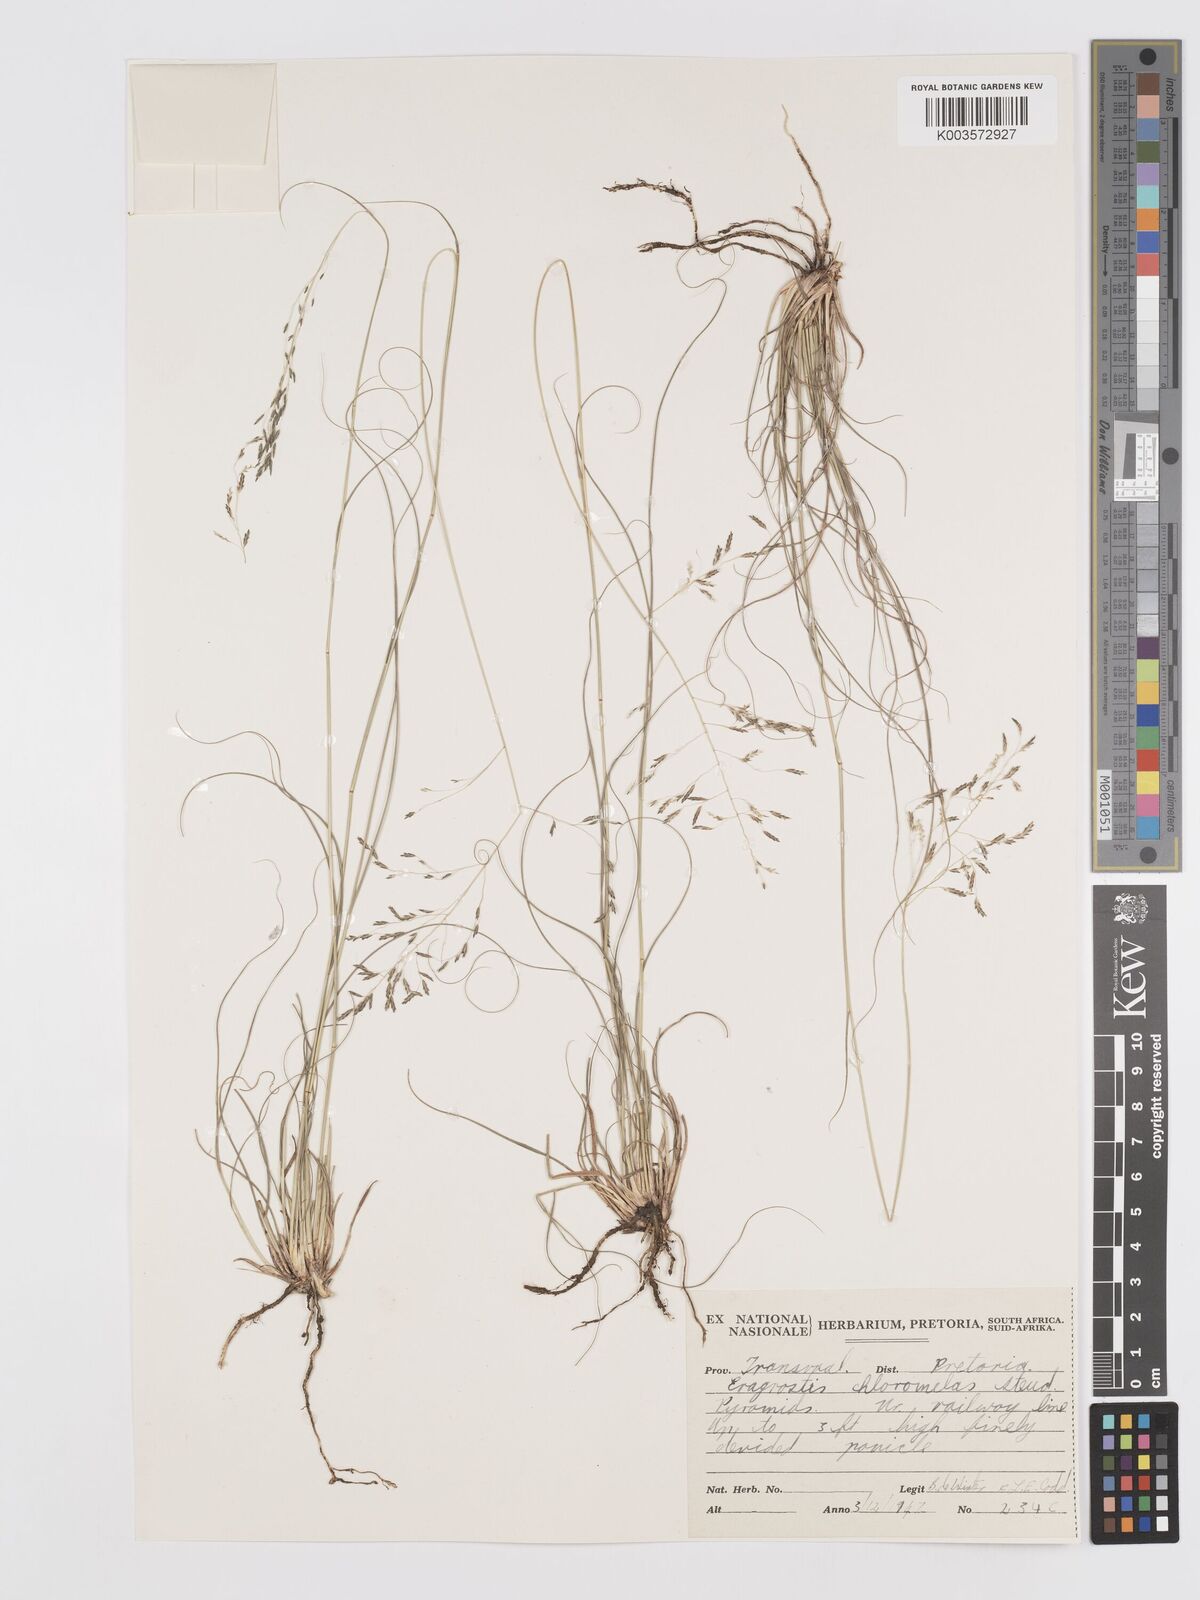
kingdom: Plantae
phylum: Tracheophyta
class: Liliopsida
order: Poales
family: Poaceae
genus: Eragrostis
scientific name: Eragrostis curvula
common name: African love-grass
